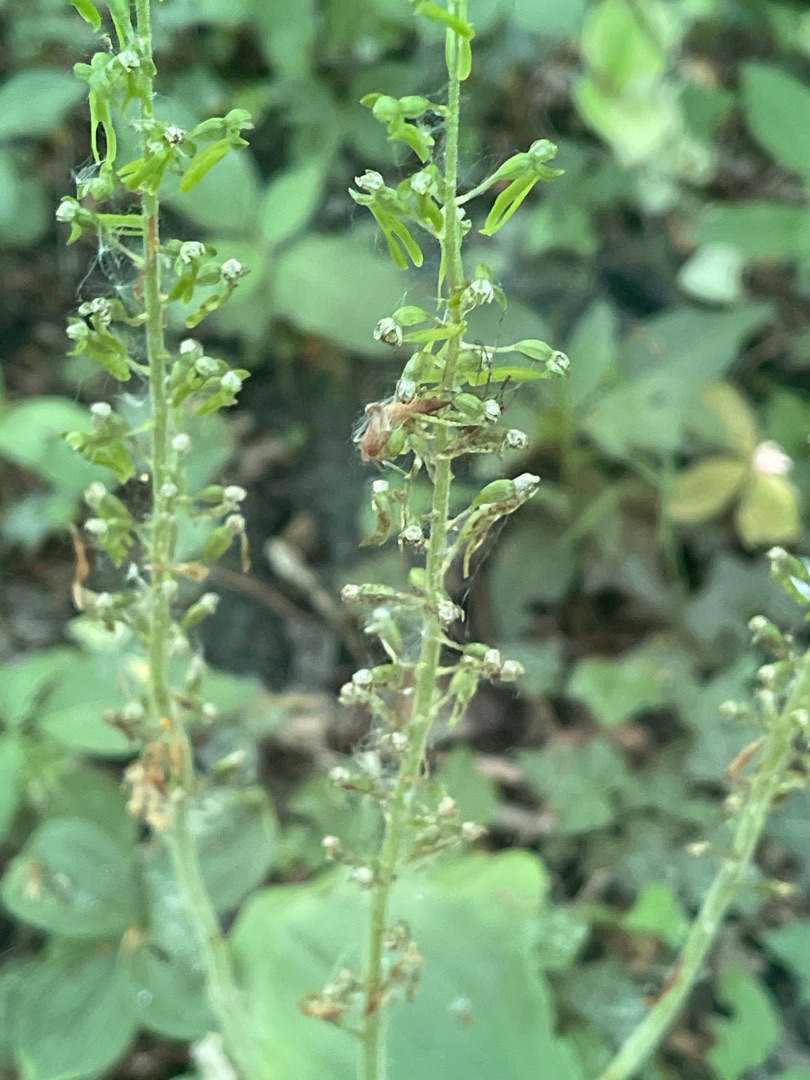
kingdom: Plantae
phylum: Tracheophyta
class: Liliopsida
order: Asparagales
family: Orchidaceae
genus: Neottia
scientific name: Neottia ovata
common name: Ægbladet fliglæbe
